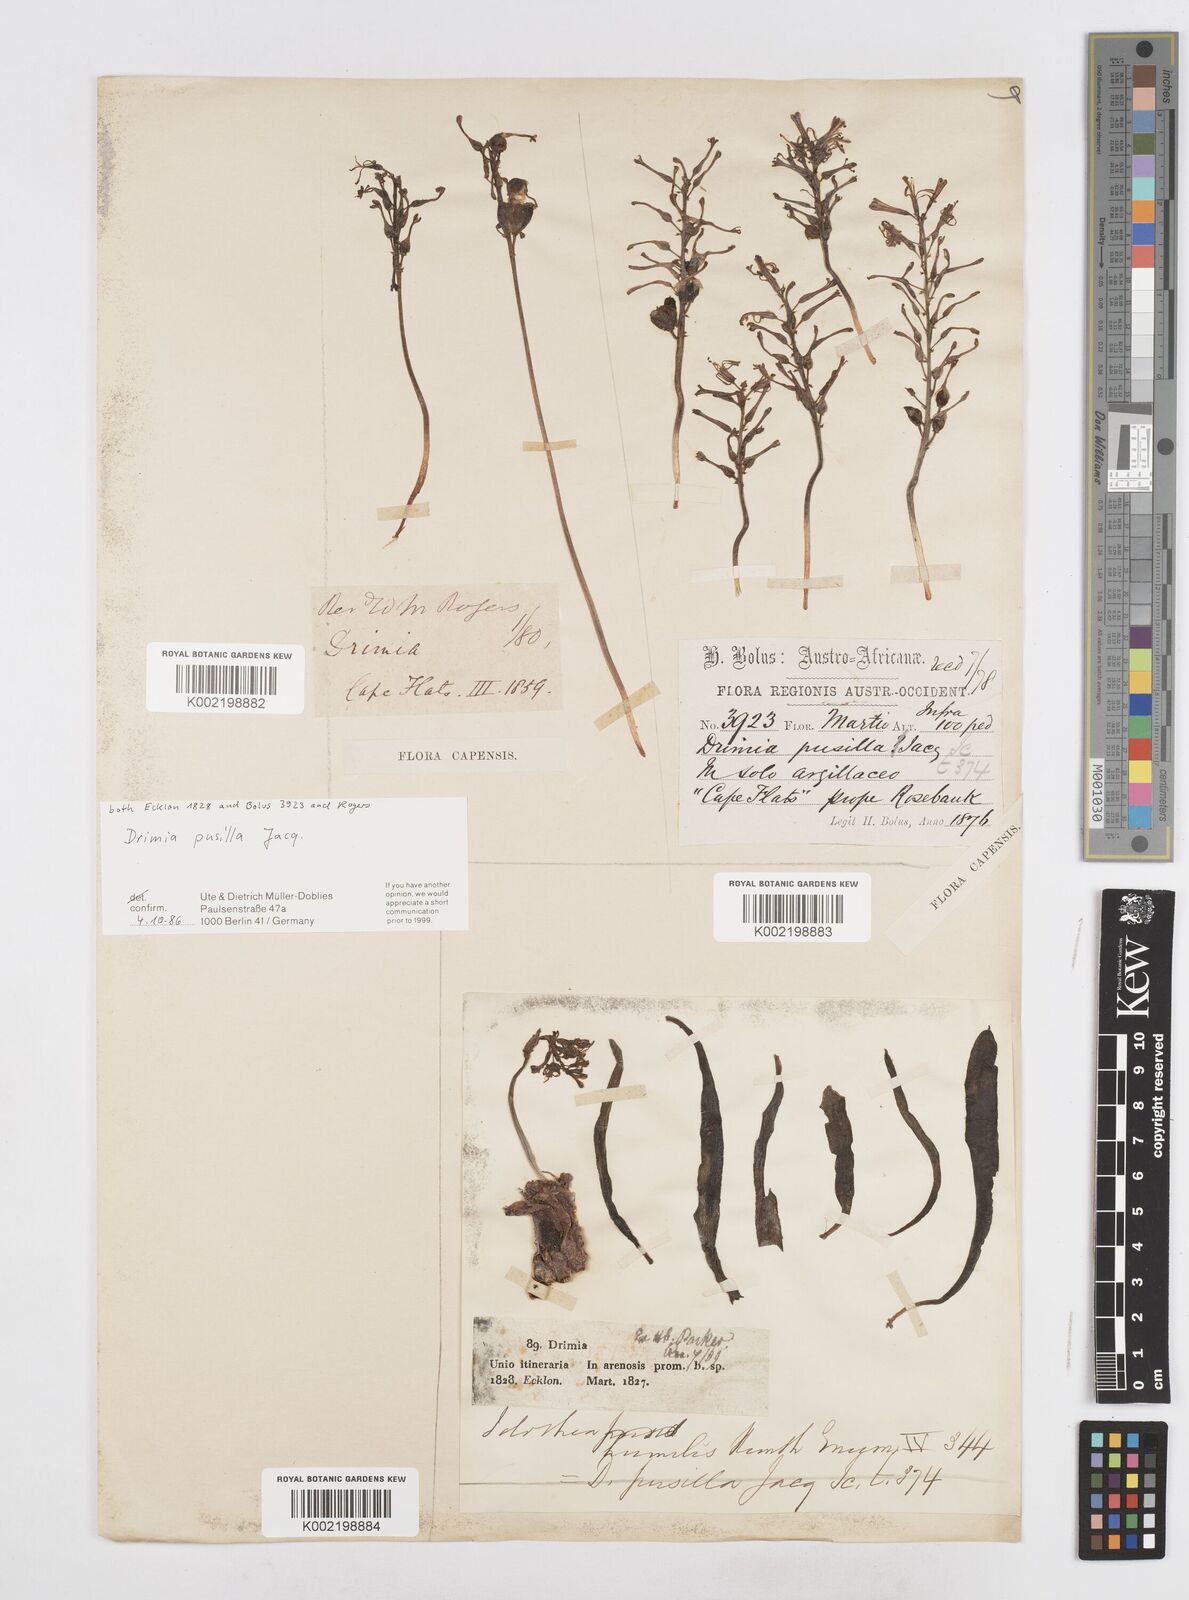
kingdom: Plantae
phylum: Tracheophyta
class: Liliopsida
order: Asparagales
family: Asparagaceae
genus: Drimia
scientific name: Drimia elata
